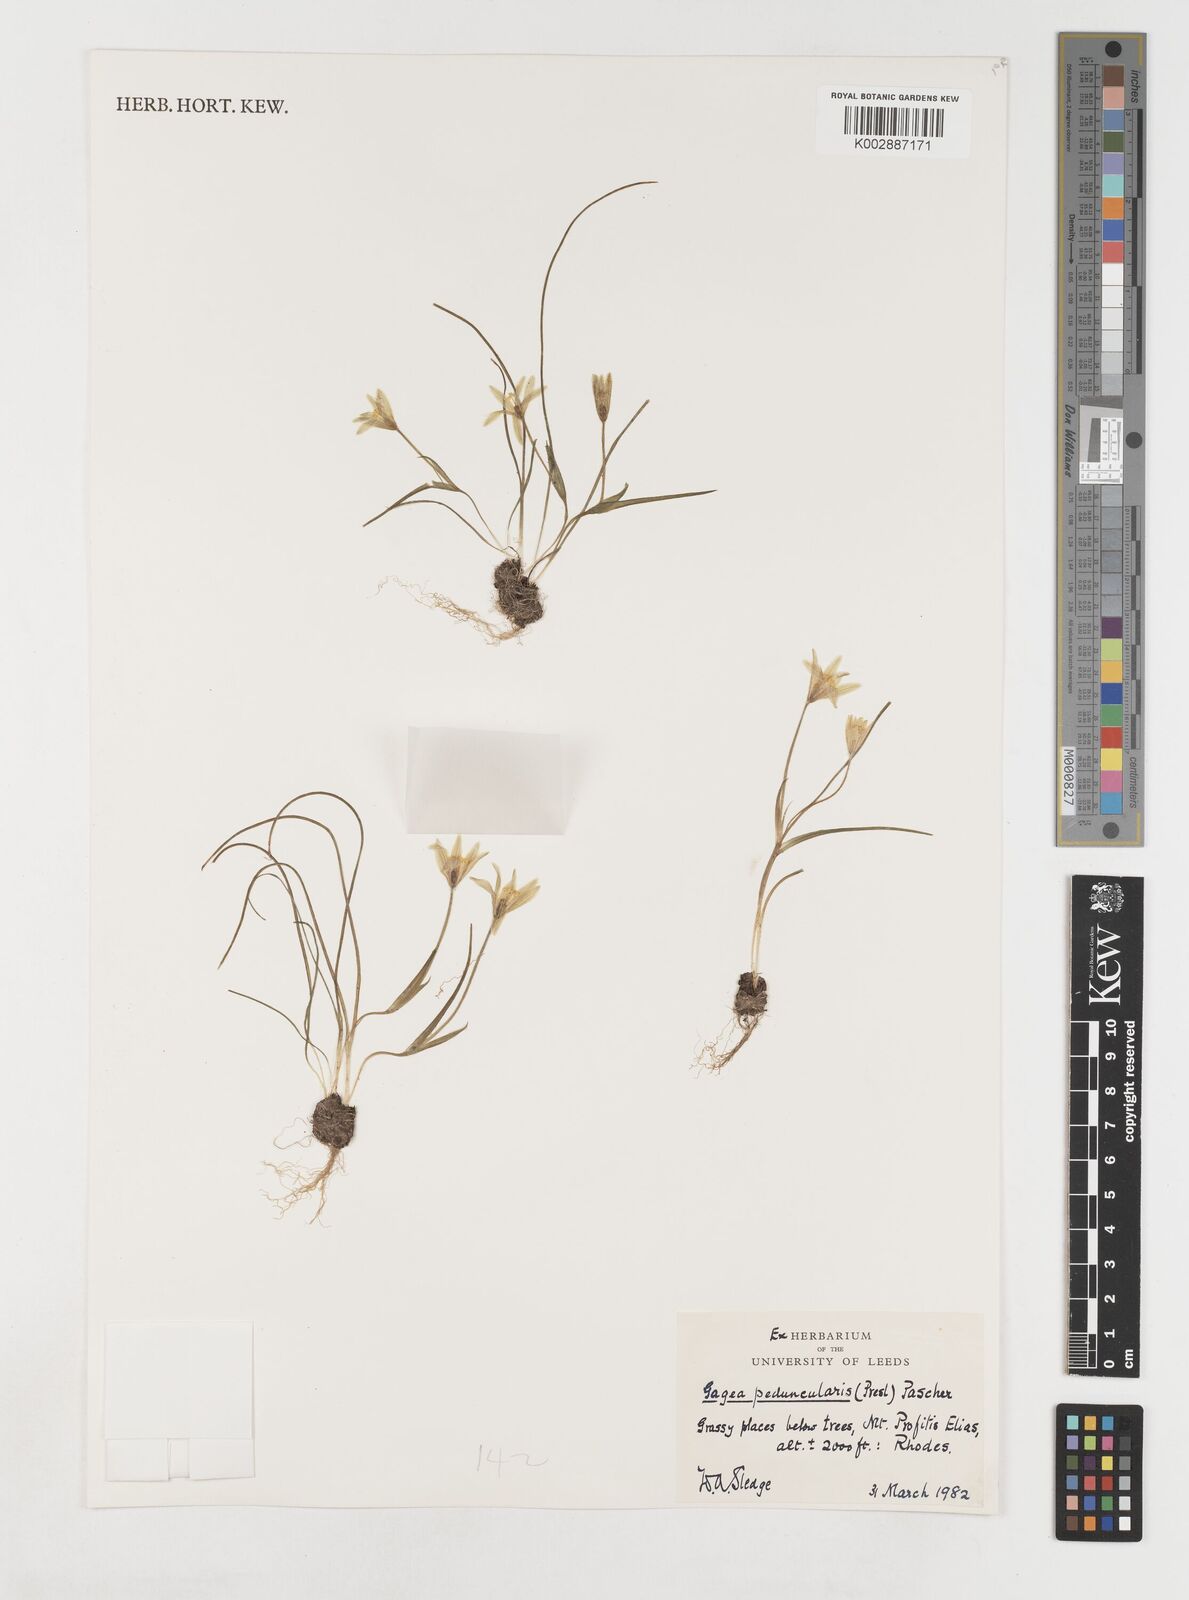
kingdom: Plantae
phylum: Tracheophyta
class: Liliopsida
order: Liliales
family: Liliaceae
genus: Gagea
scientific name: Gagea peduncularis
